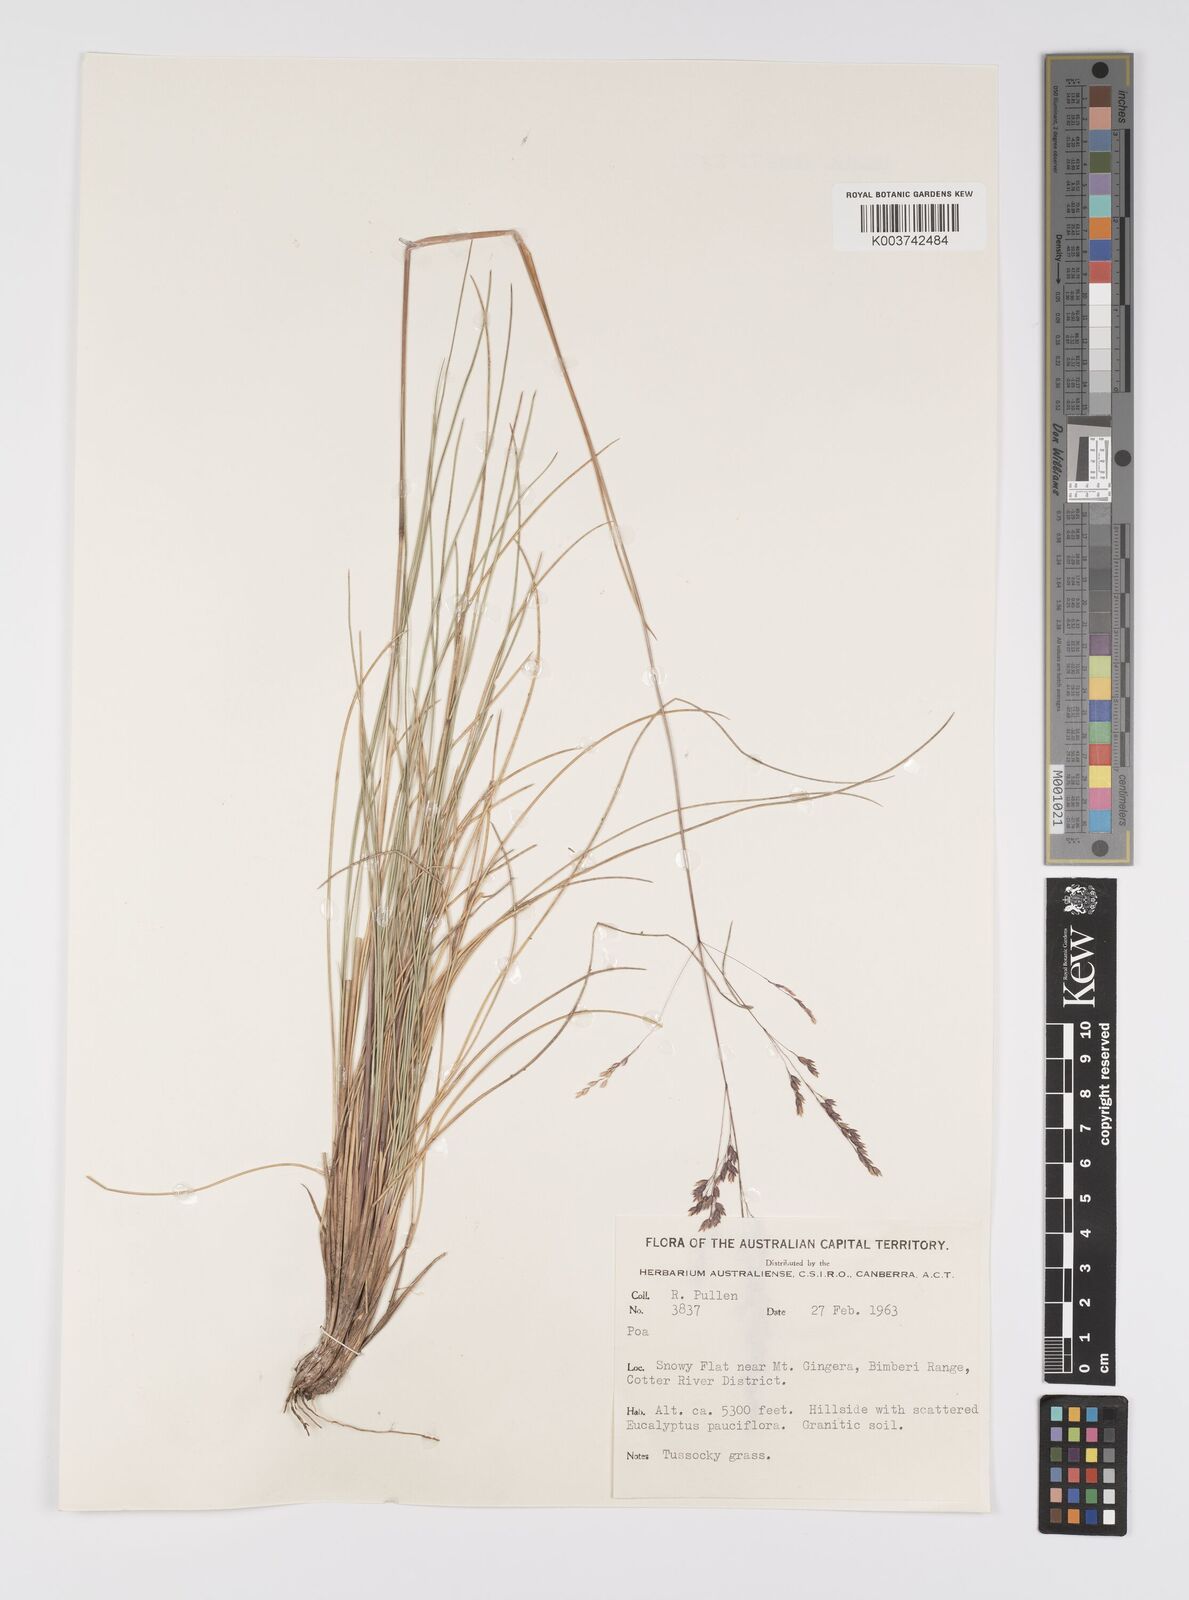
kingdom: Plantae
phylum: Tracheophyta
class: Liliopsida
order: Poales
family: Poaceae
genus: Poa
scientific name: Poa
